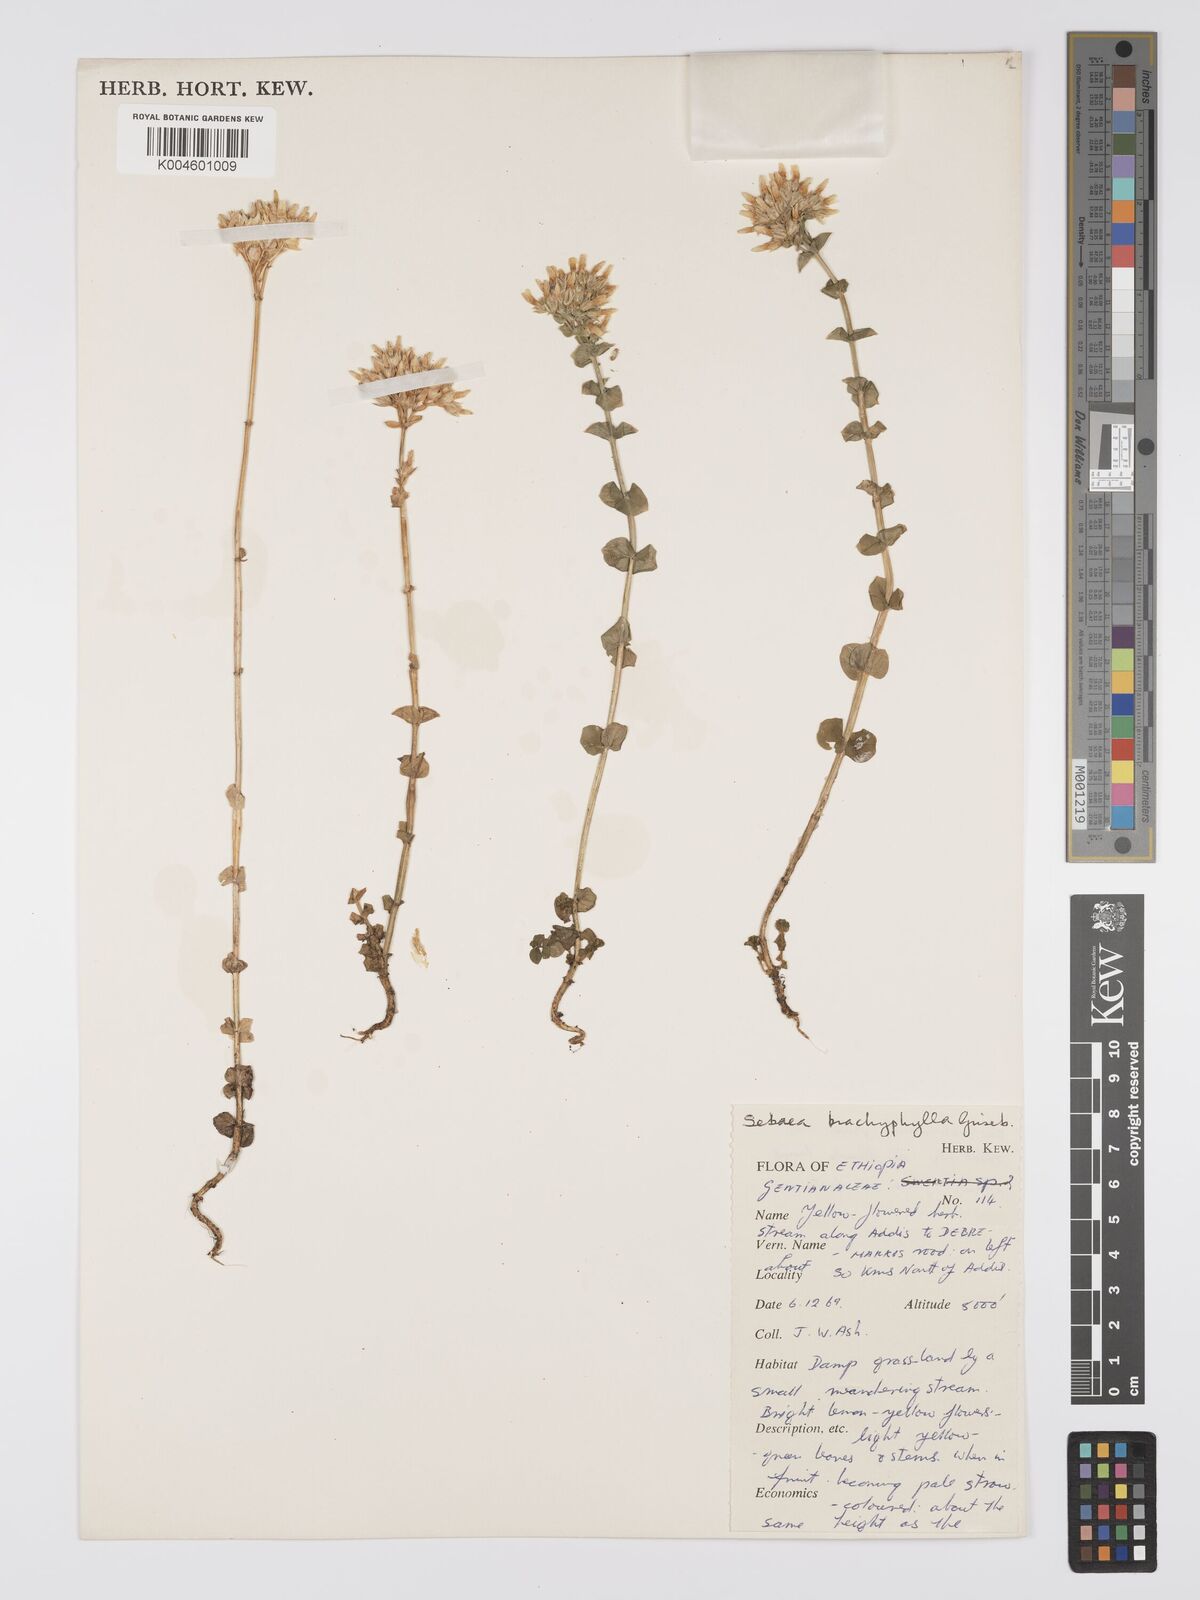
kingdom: Plantae
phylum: Tracheophyta
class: Magnoliopsida
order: Gentianales
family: Gentianaceae
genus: Sebaea
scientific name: Sebaea brachyphylla
